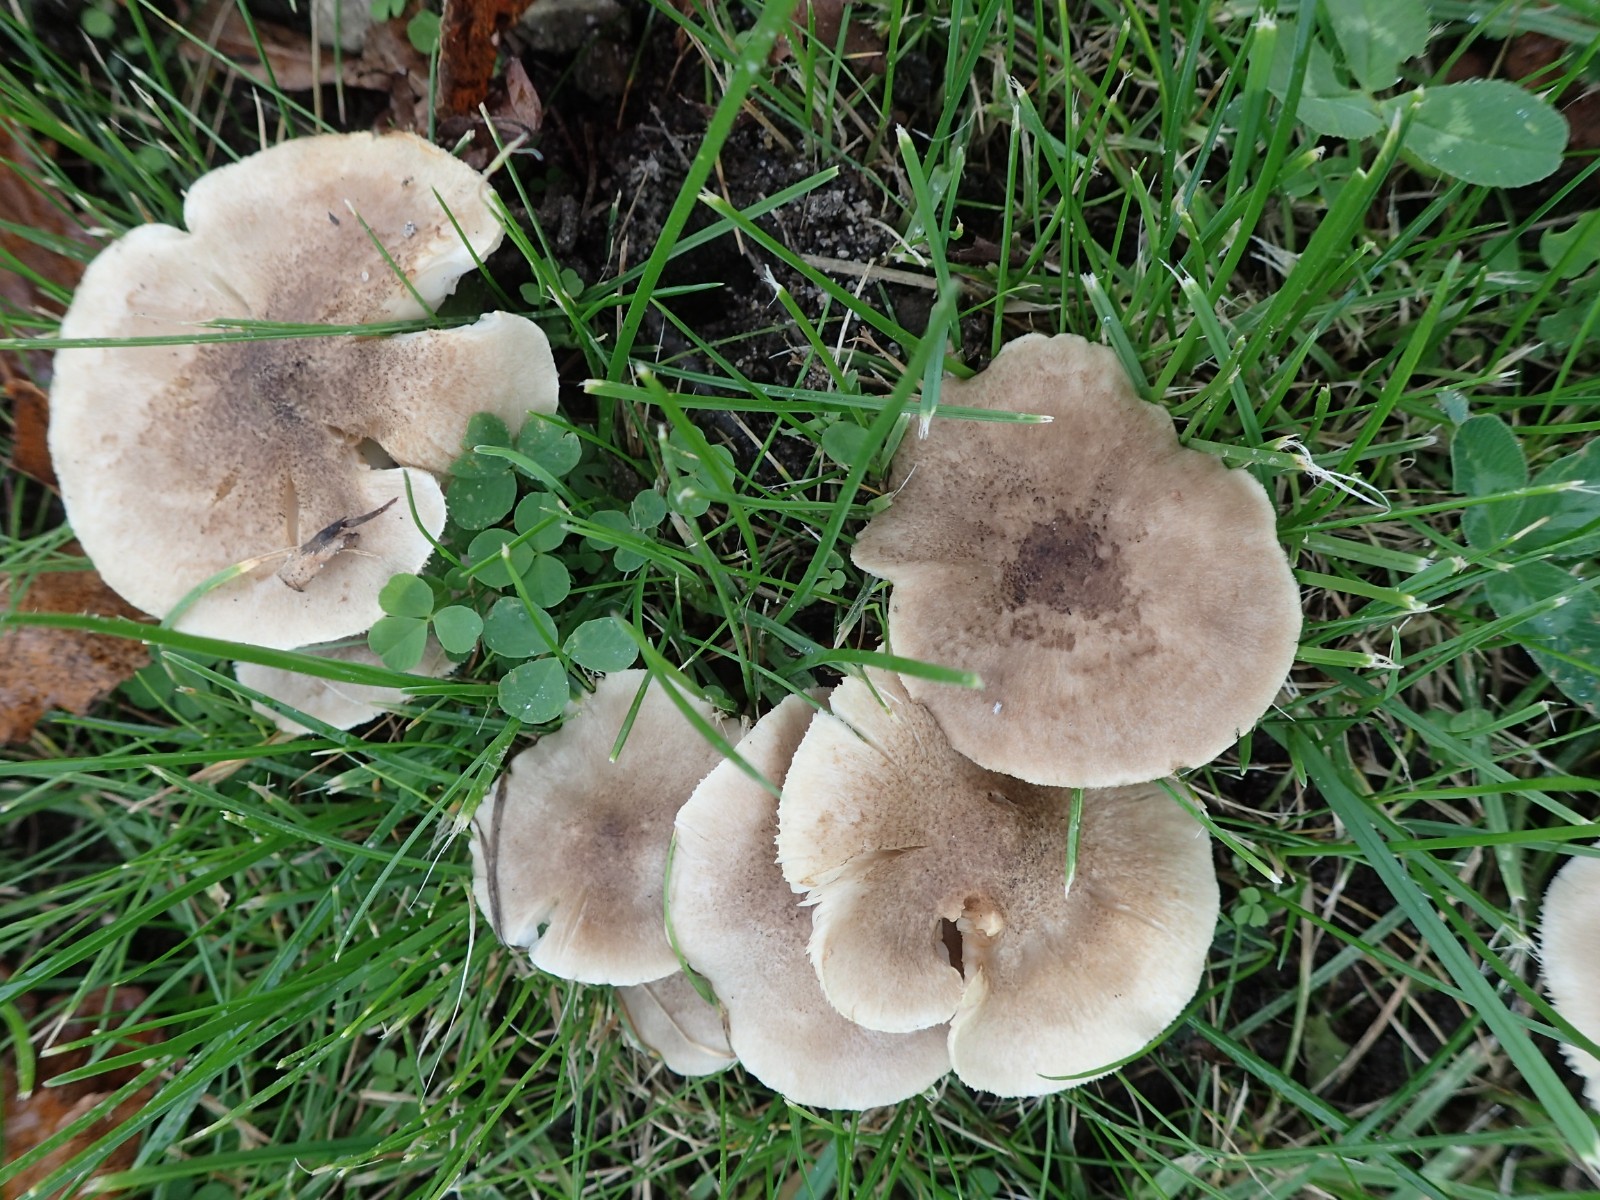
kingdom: Fungi
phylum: Basidiomycota
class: Agaricomycetes
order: Agaricales
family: Tricholomataceae
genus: Tricholoma
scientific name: Tricholoma scalpturatum
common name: gulplettet ridderhat
